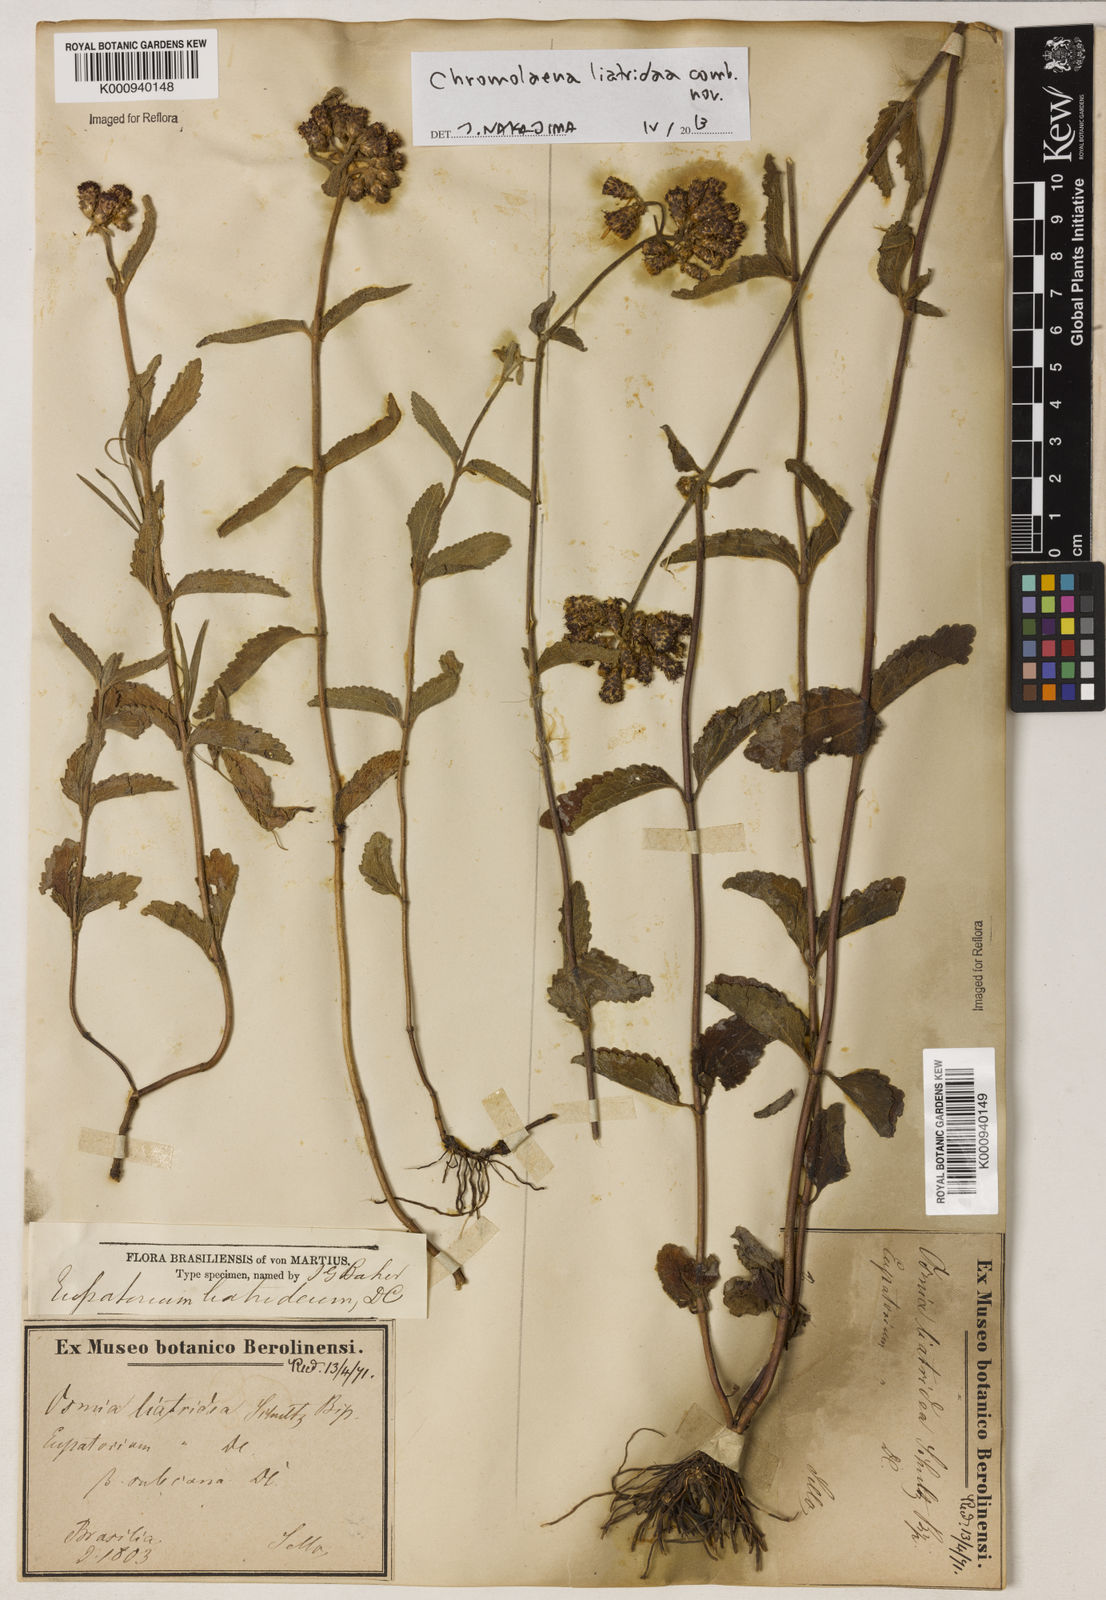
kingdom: Plantae
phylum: Tracheophyta
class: Magnoliopsida
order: Asterales
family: Asteraceae
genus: Chromolaena
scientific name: Chromolaena
